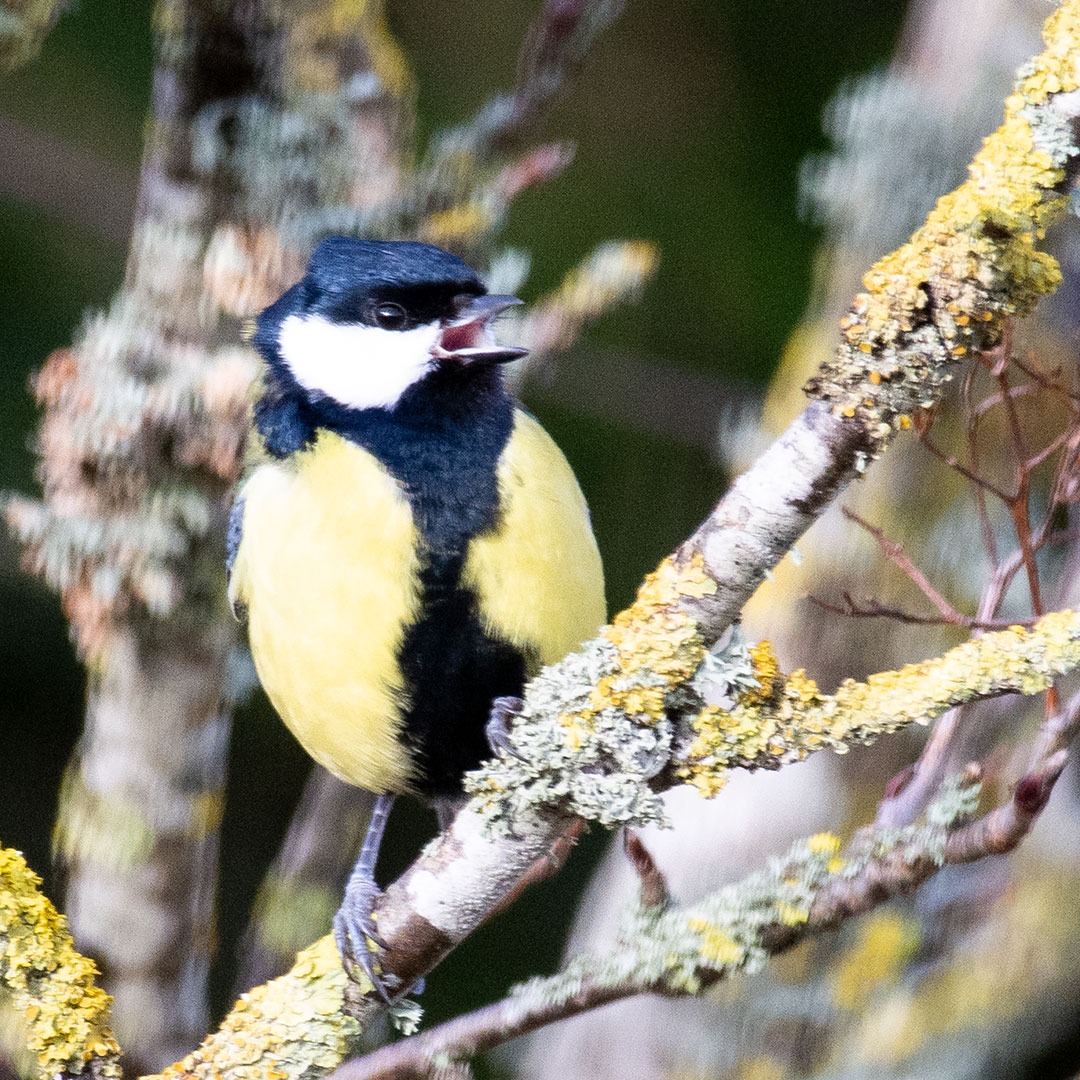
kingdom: Animalia
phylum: Chordata
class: Aves
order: Passeriformes
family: Paridae
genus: Parus
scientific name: Parus major
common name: Musvit
